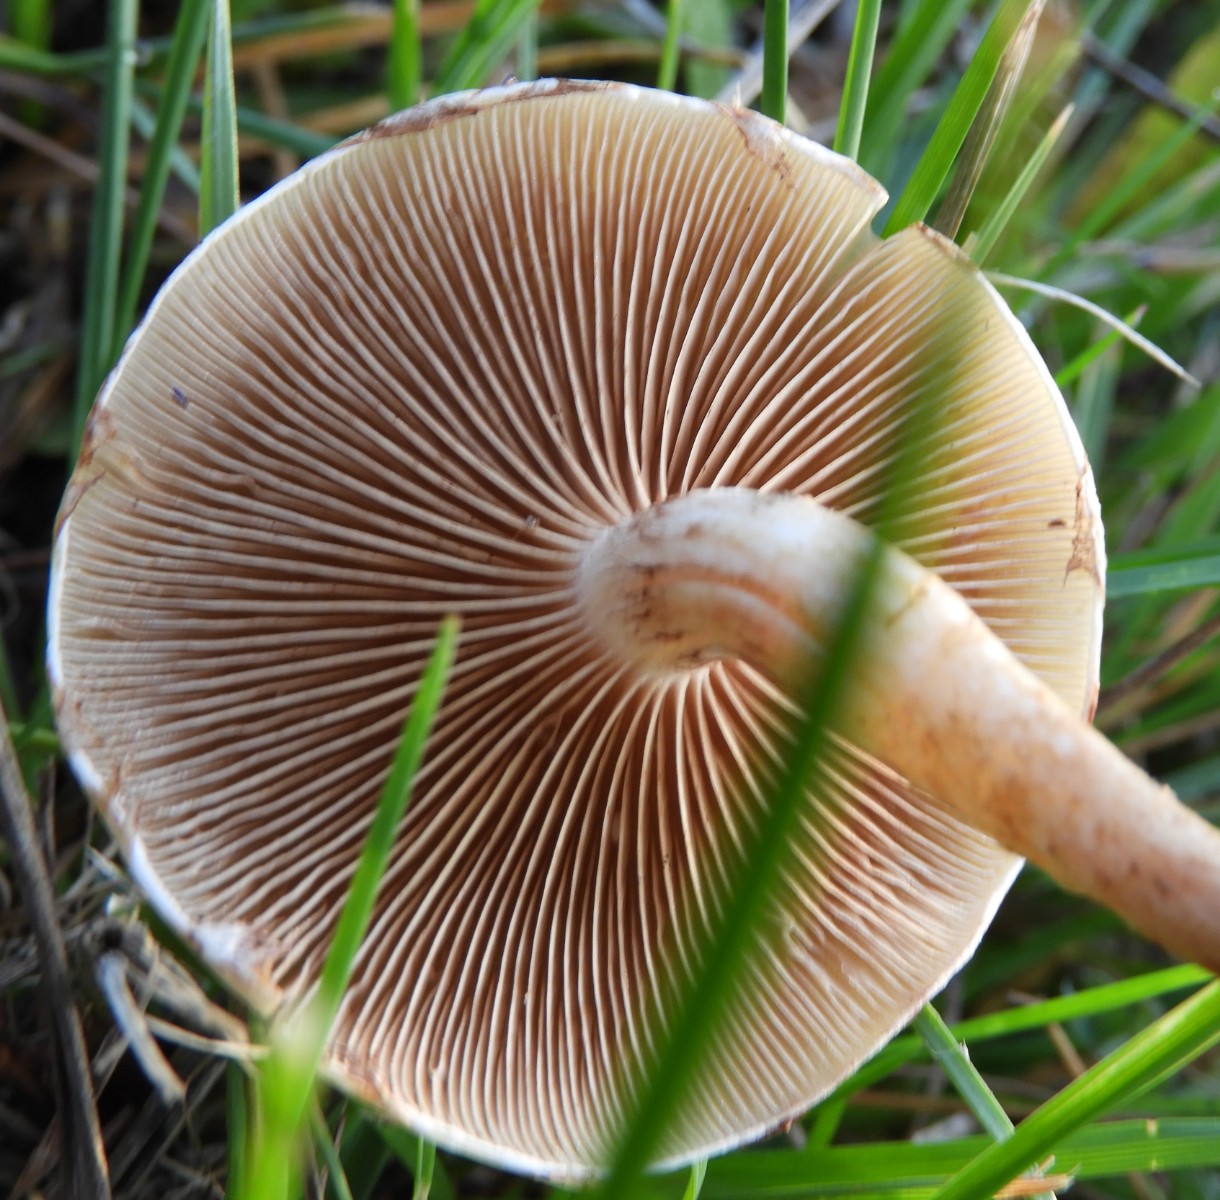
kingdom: Fungi
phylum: Basidiomycota
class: Agaricomycetes
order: Agaricales
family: Strophariaceae
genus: Pholiota
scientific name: Pholiota gummosa
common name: grøngul skælhat
